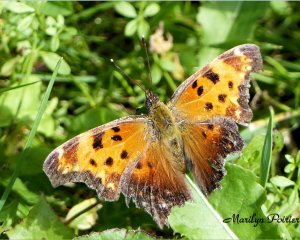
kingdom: Animalia
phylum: Arthropoda
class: Insecta
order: Lepidoptera
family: Nymphalidae
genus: Polygonia
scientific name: Polygonia comma
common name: Eastern Comma
